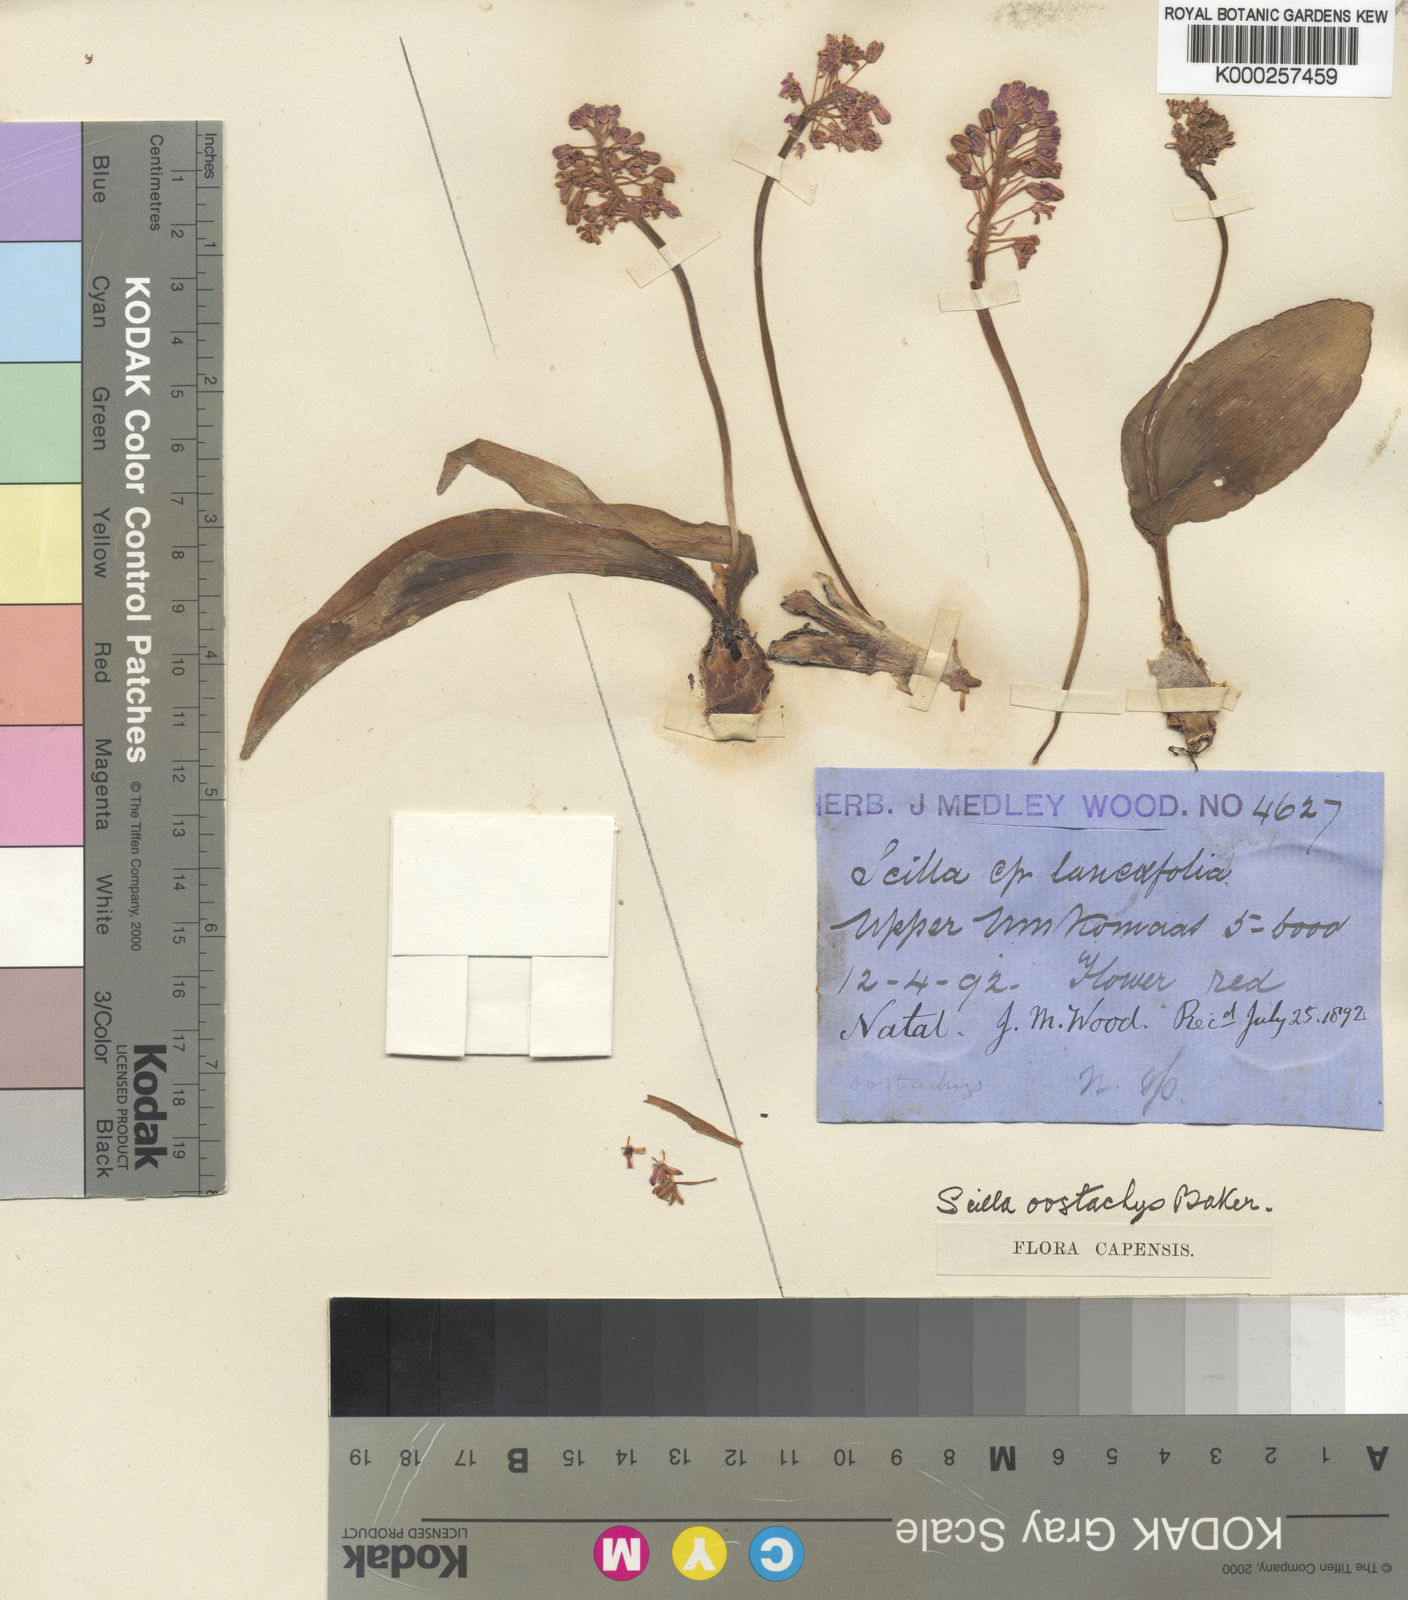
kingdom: Plantae
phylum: Tracheophyta
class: Liliopsida
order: Asparagales
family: Asparagaceae
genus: Ledebouria
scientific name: Ledebouria cooperi
